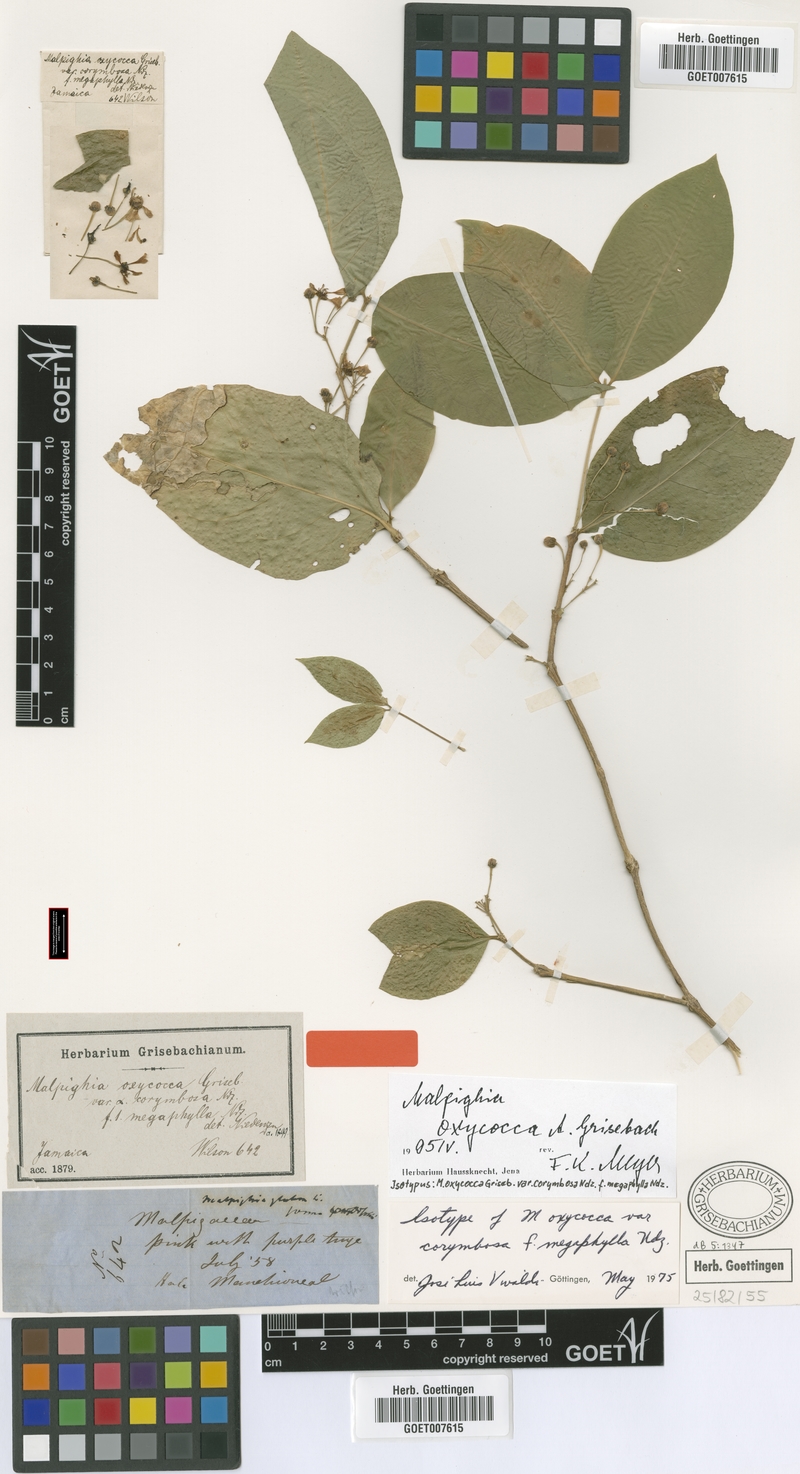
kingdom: Plantae
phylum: Tracheophyta
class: Magnoliopsida
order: Malpighiales
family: Malpighiaceae
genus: Malpighia
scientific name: Malpighia oxycocca
